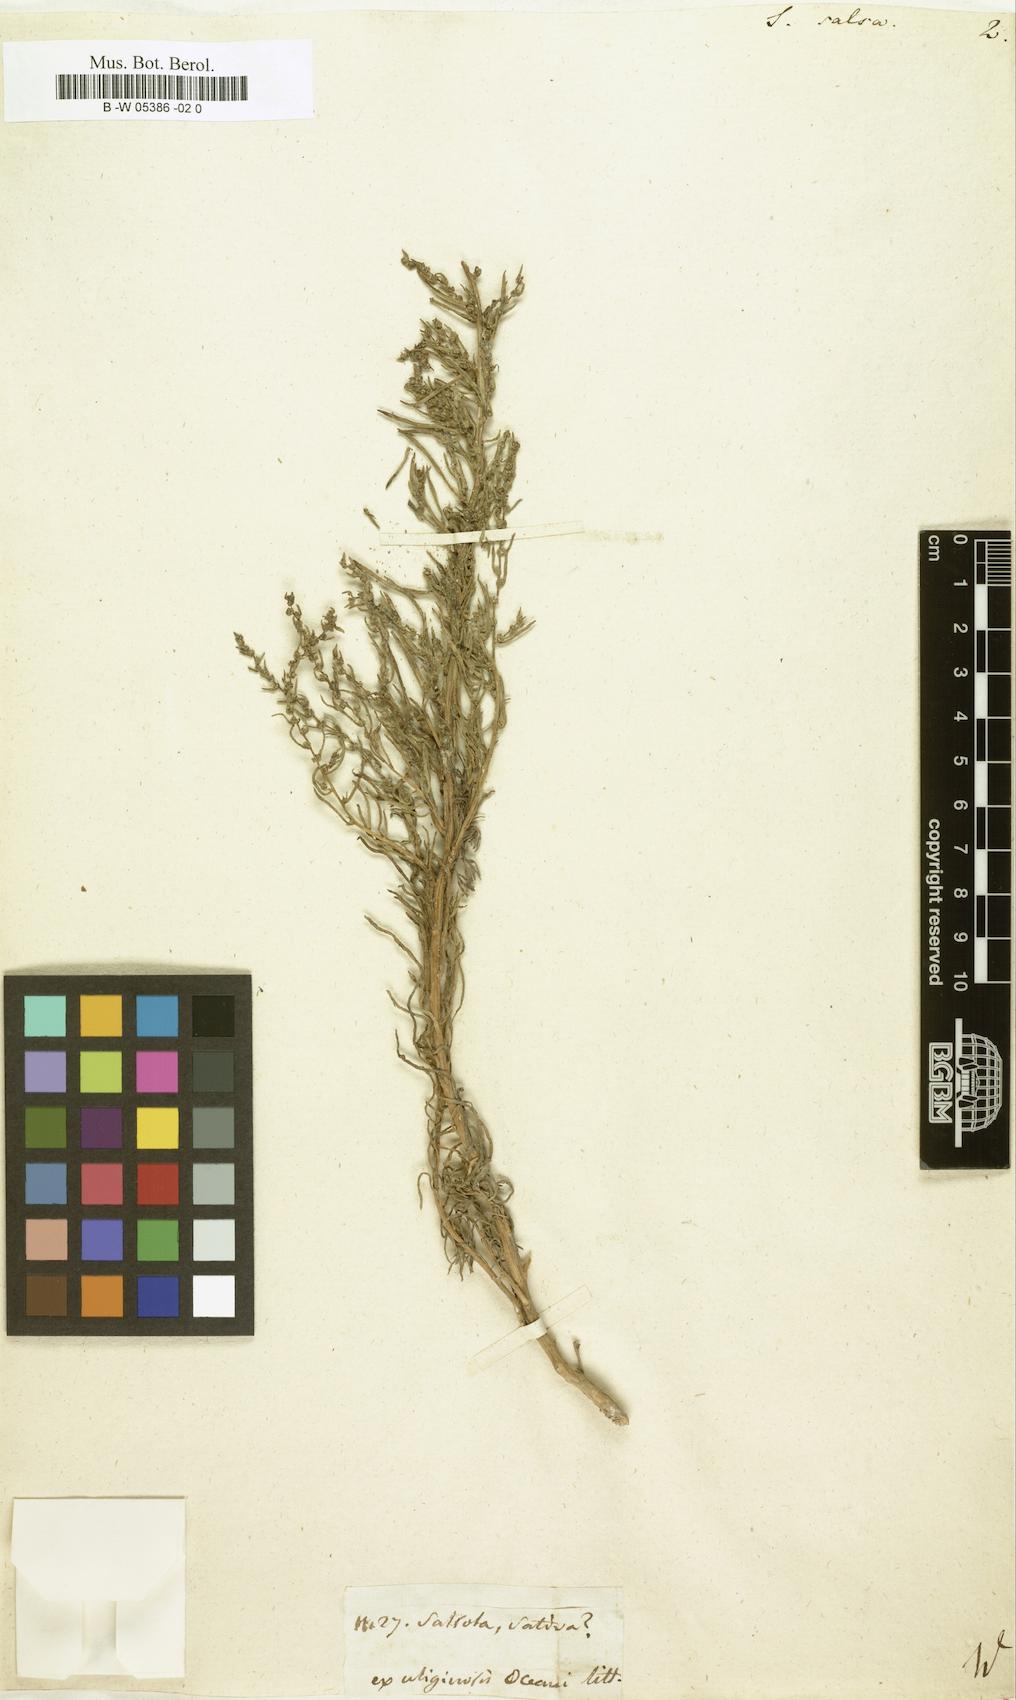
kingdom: Plantae
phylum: Tracheophyta
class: Magnoliopsida
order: Caryophyllales
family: Amaranthaceae
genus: Suaeda
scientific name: Suaeda
